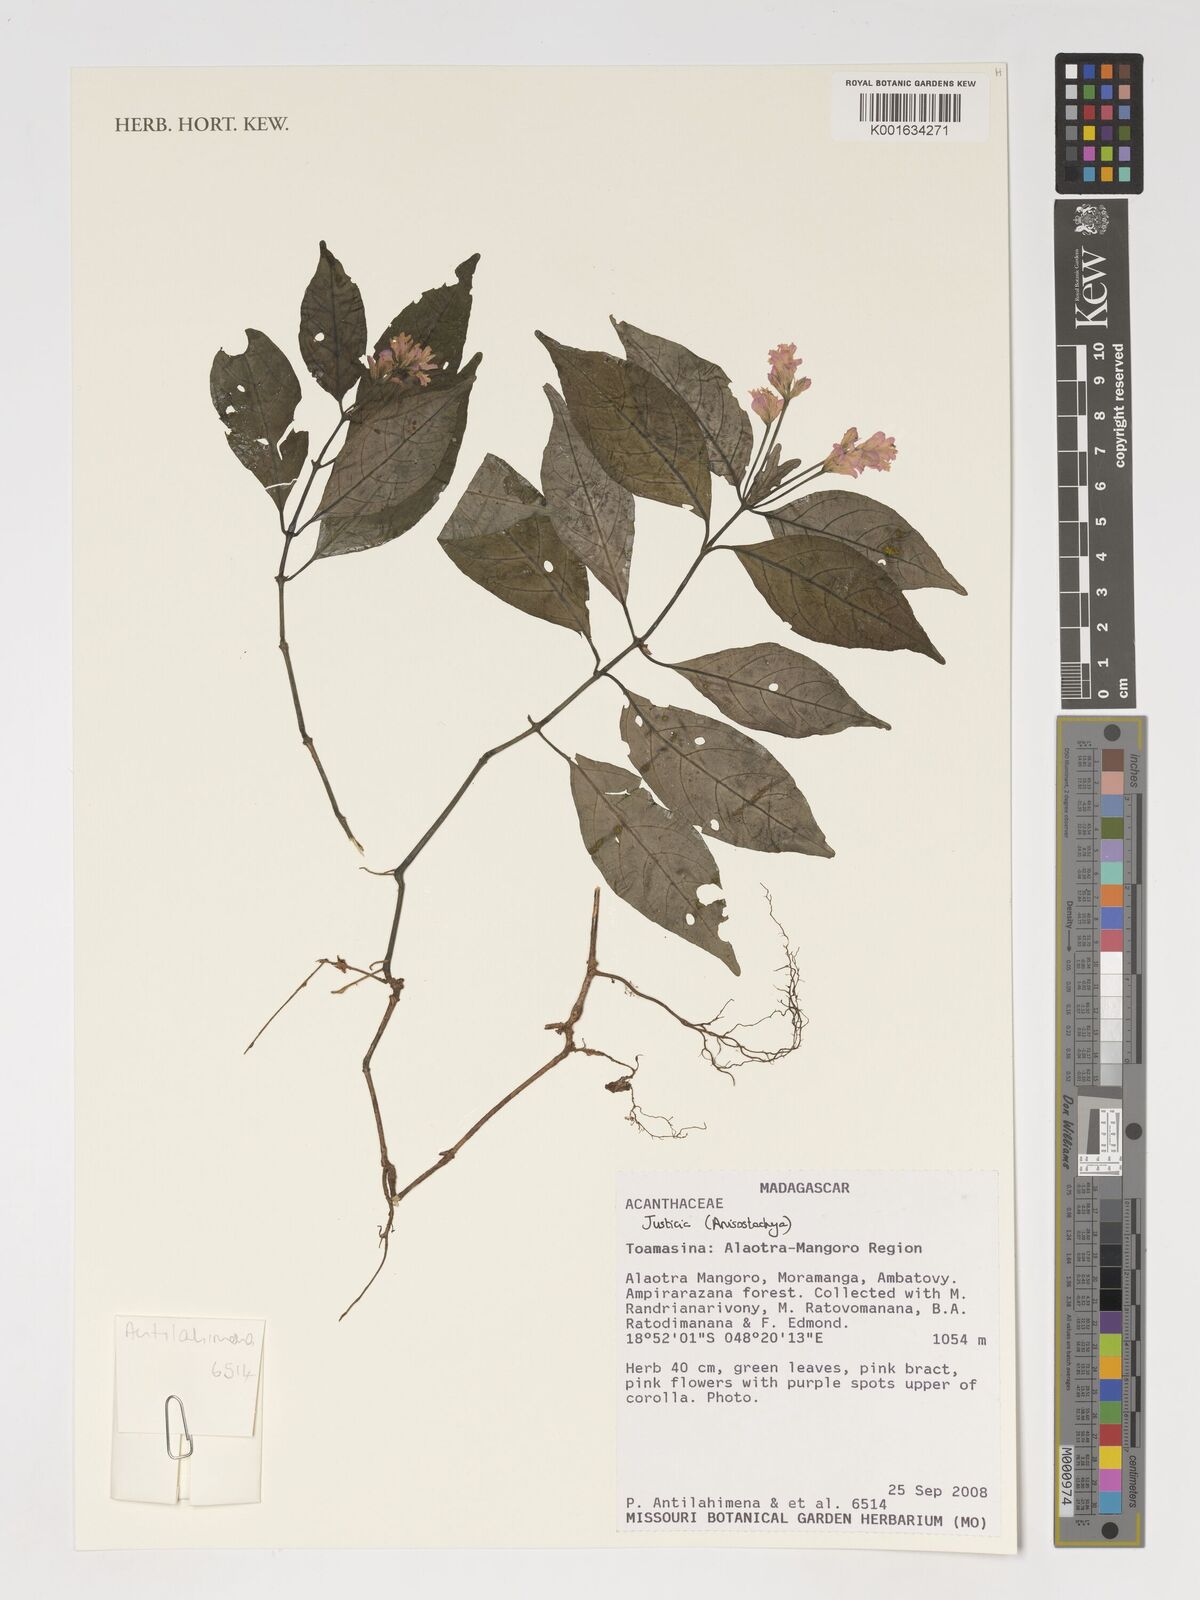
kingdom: Plantae
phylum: Tracheophyta
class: Magnoliopsida
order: Lamiales
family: Acanthaceae
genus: Justicia
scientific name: Justicia
